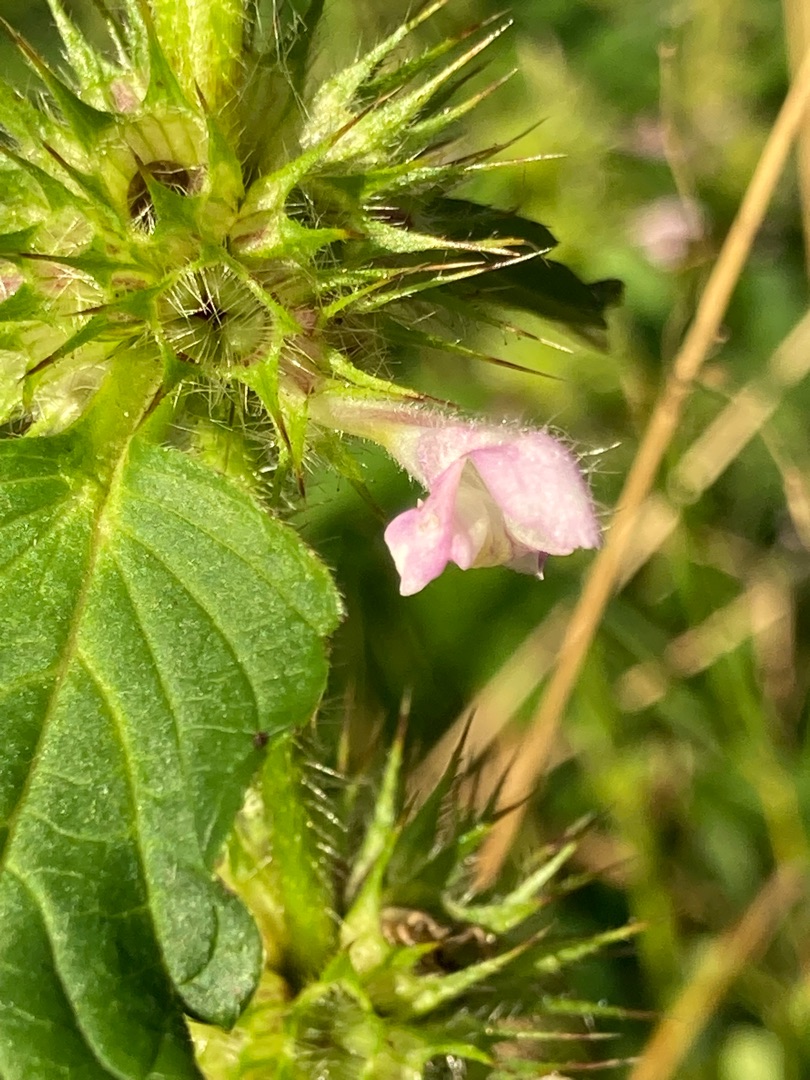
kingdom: Plantae
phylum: Tracheophyta
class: Magnoliopsida
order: Lamiales
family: Lamiaceae
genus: Galeopsis
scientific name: Galeopsis tetrahit
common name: Almindelig hanekro
